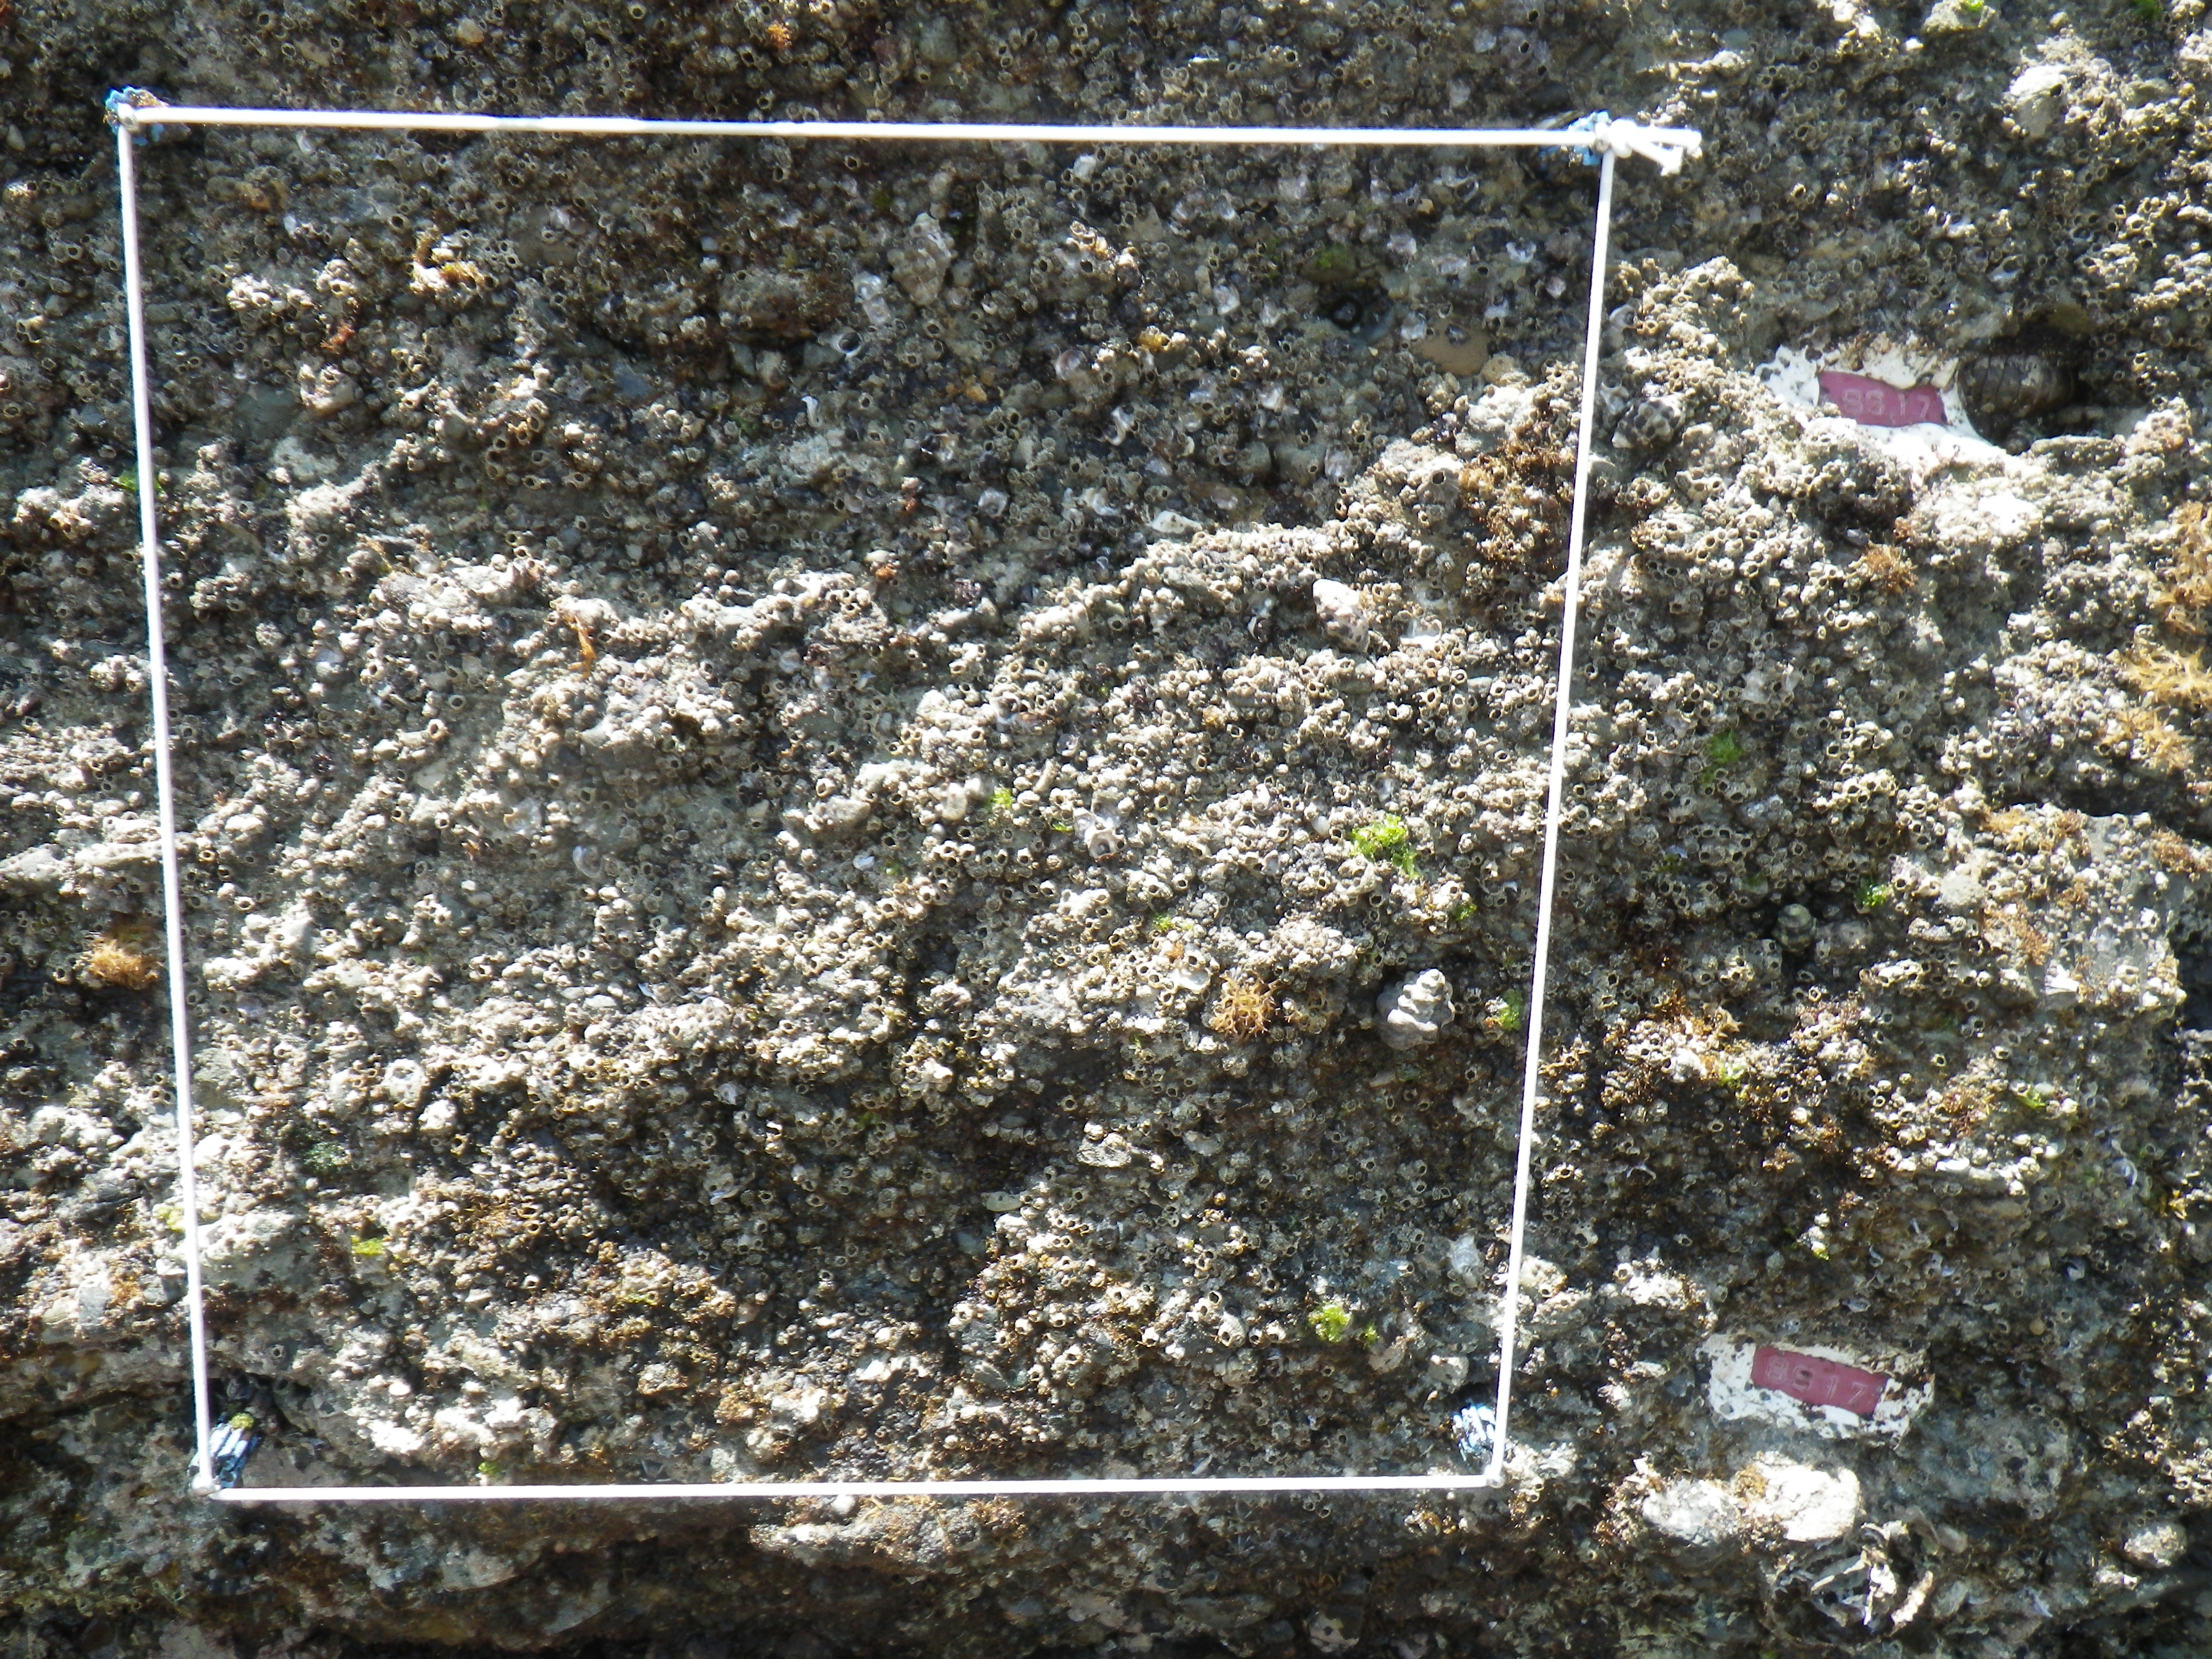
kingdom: Animalia
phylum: Arthropoda
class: Maxillopoda
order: Sessilia
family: Chthamalidae
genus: Chthamalus
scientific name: Chthamalus challengeri
